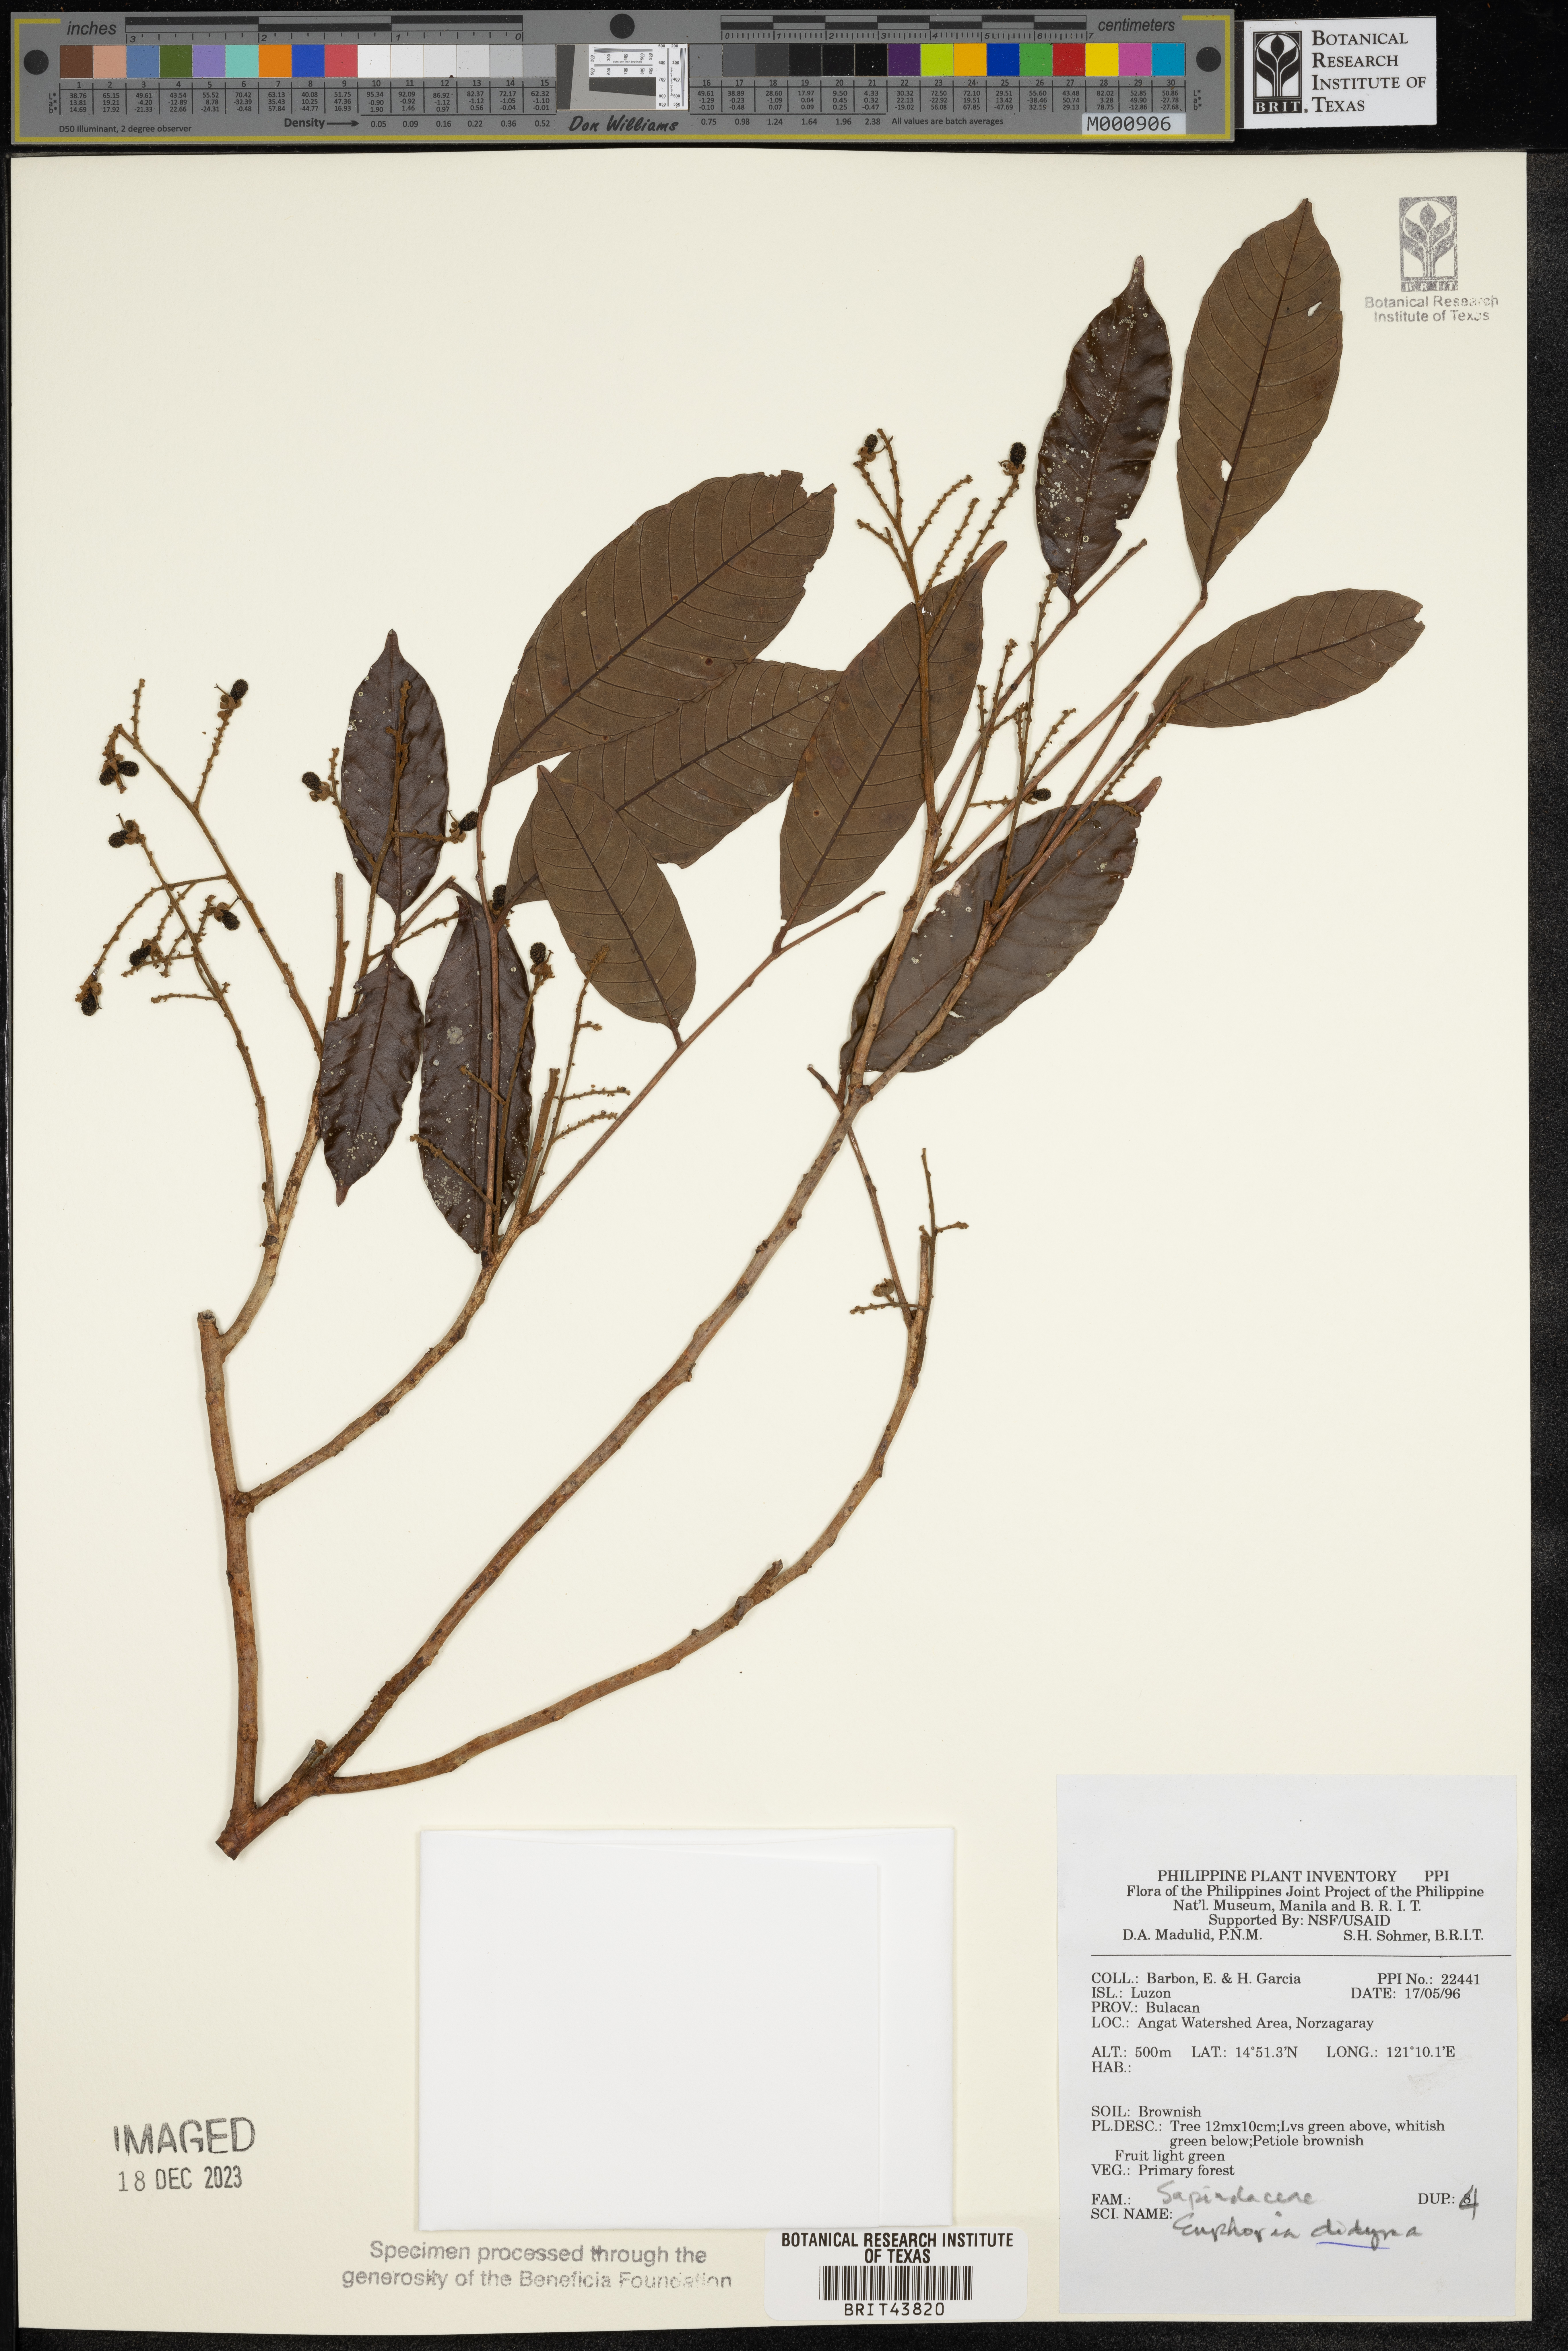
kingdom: Plantae
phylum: Tracheophyta
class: Magnoliopsida
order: Sapindales
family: Sapindaceae
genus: Litchi
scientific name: Litchi chinensis
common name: Litchi
